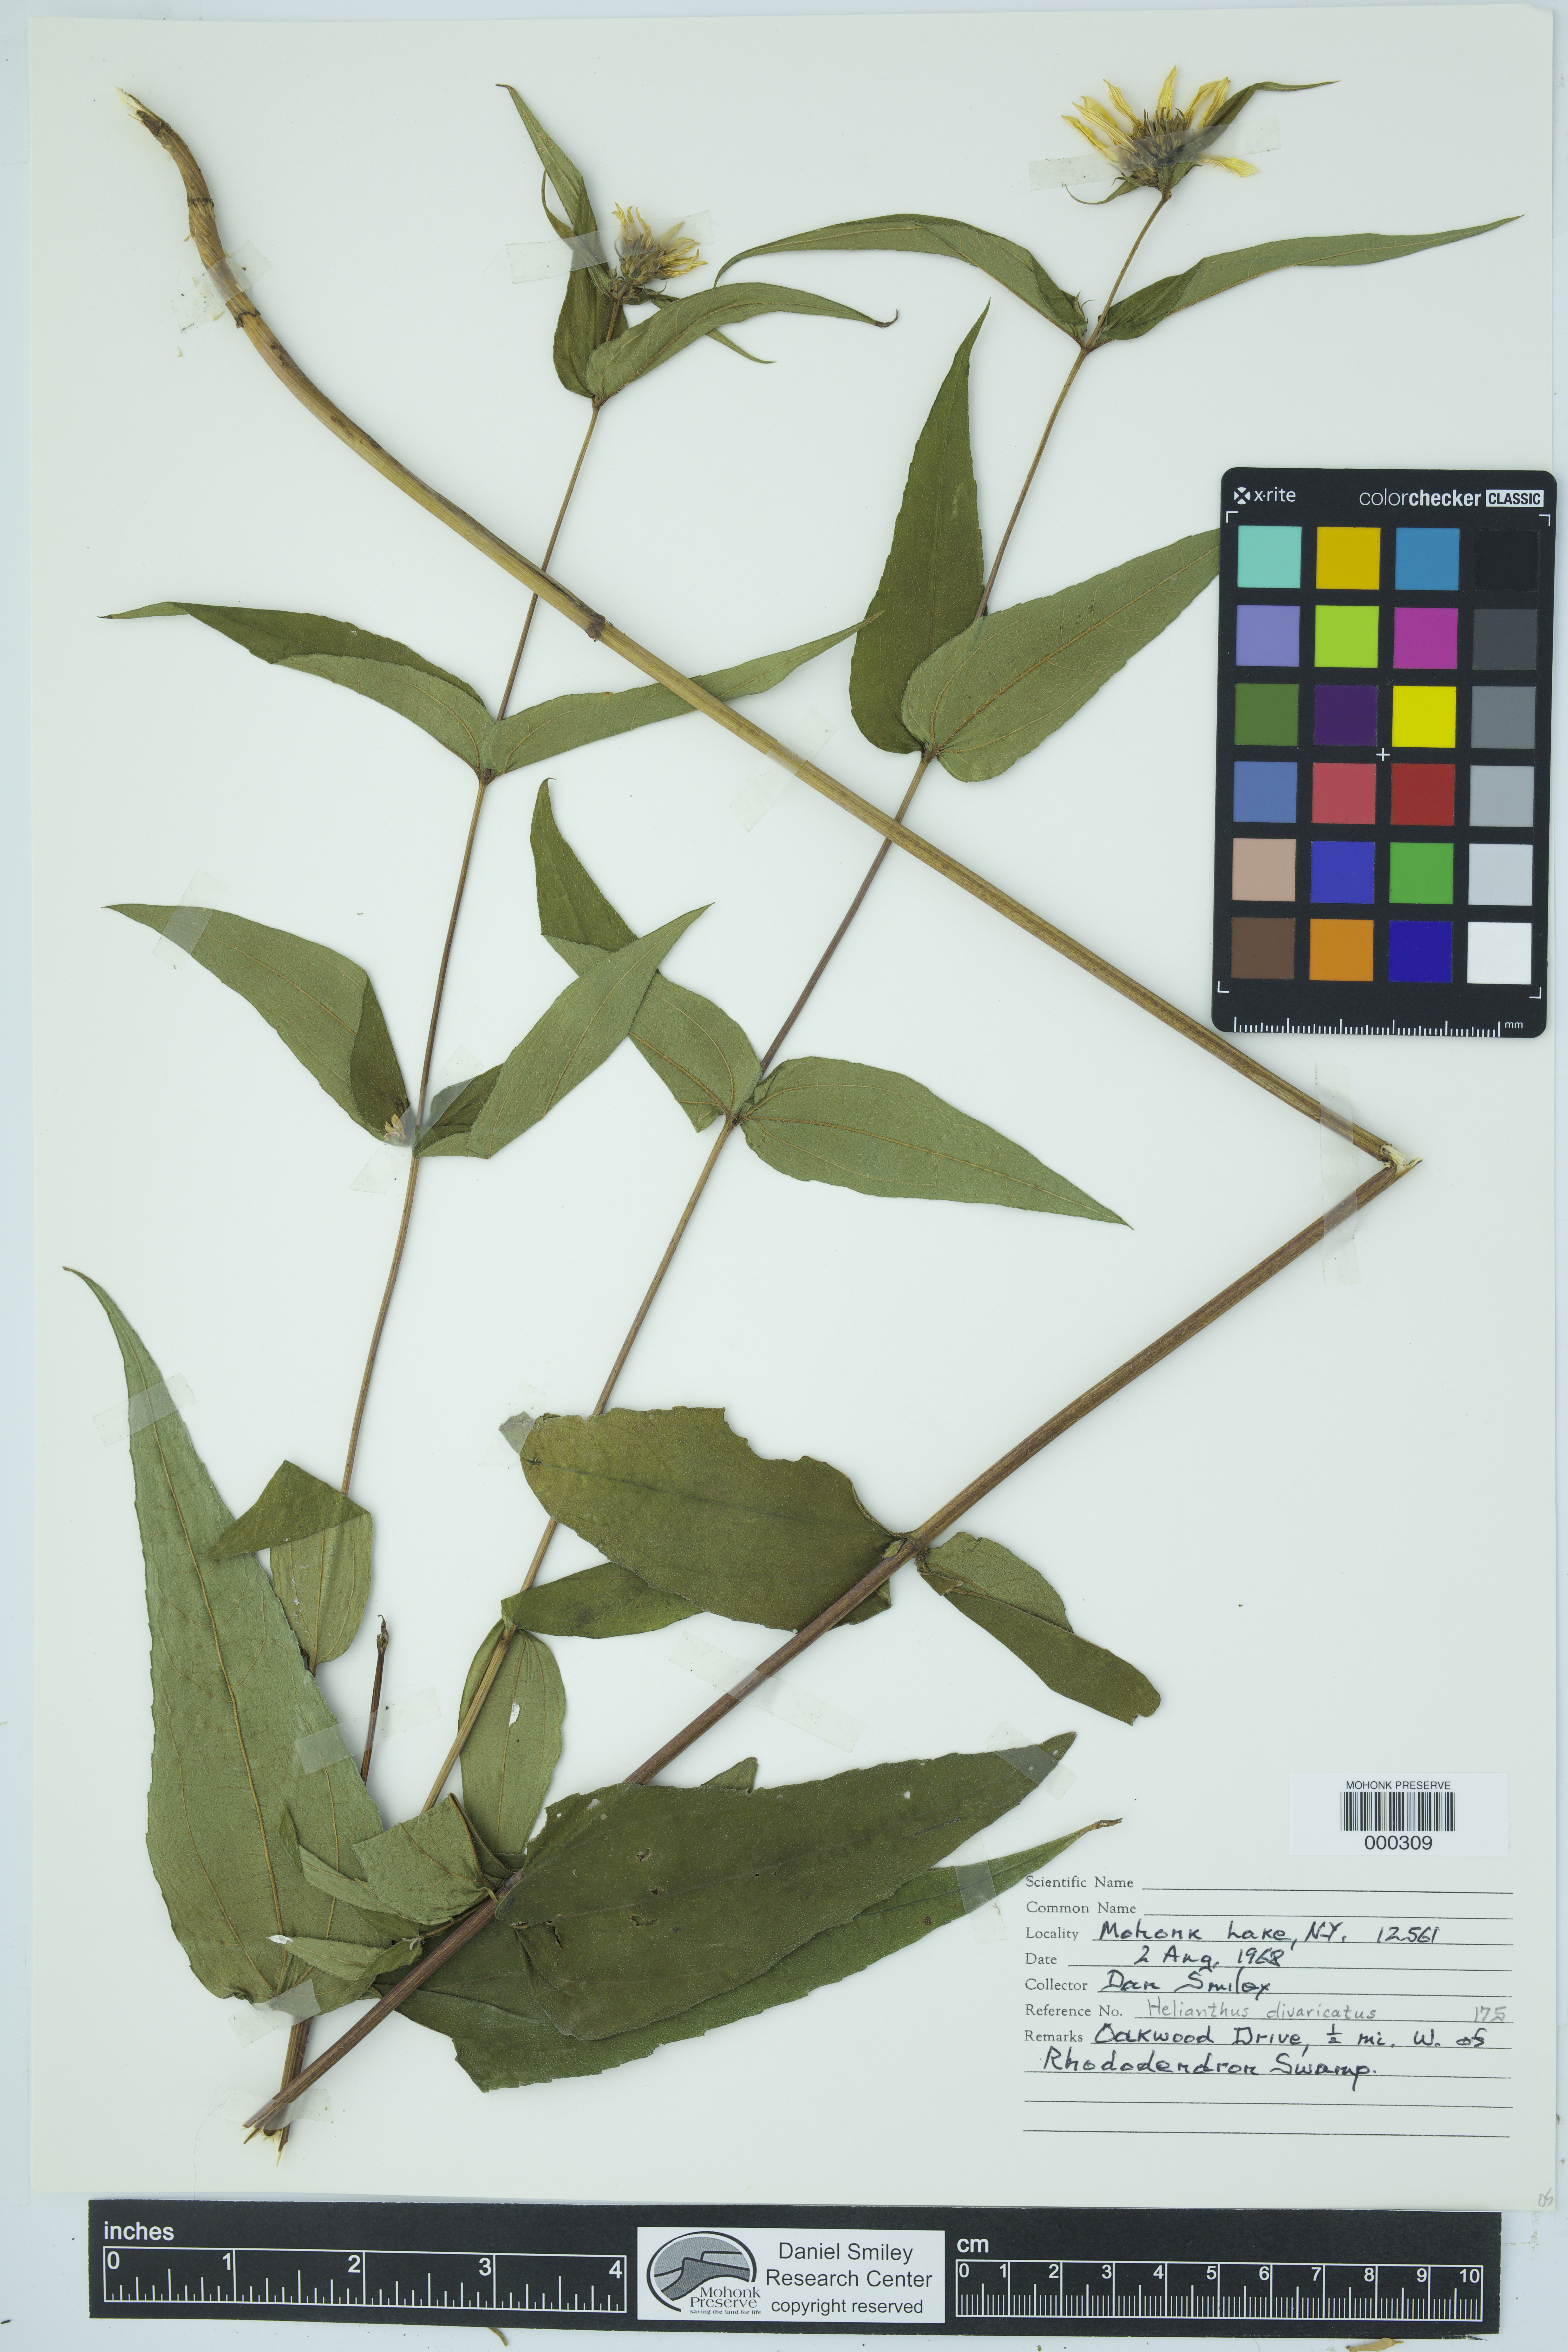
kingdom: Plantae
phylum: Tracheophyta
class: Magnoliopsida
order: Asterales
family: Asteraceae
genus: Helianthus
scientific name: Helianthus divaricatus
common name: Divergent sunflower
